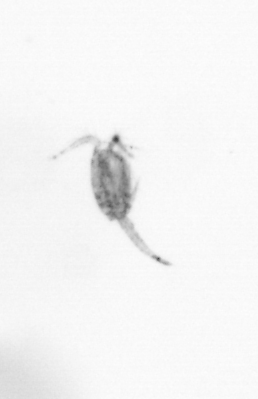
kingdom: Animalia
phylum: Arthropoda
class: Copepoda
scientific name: Copepoda
